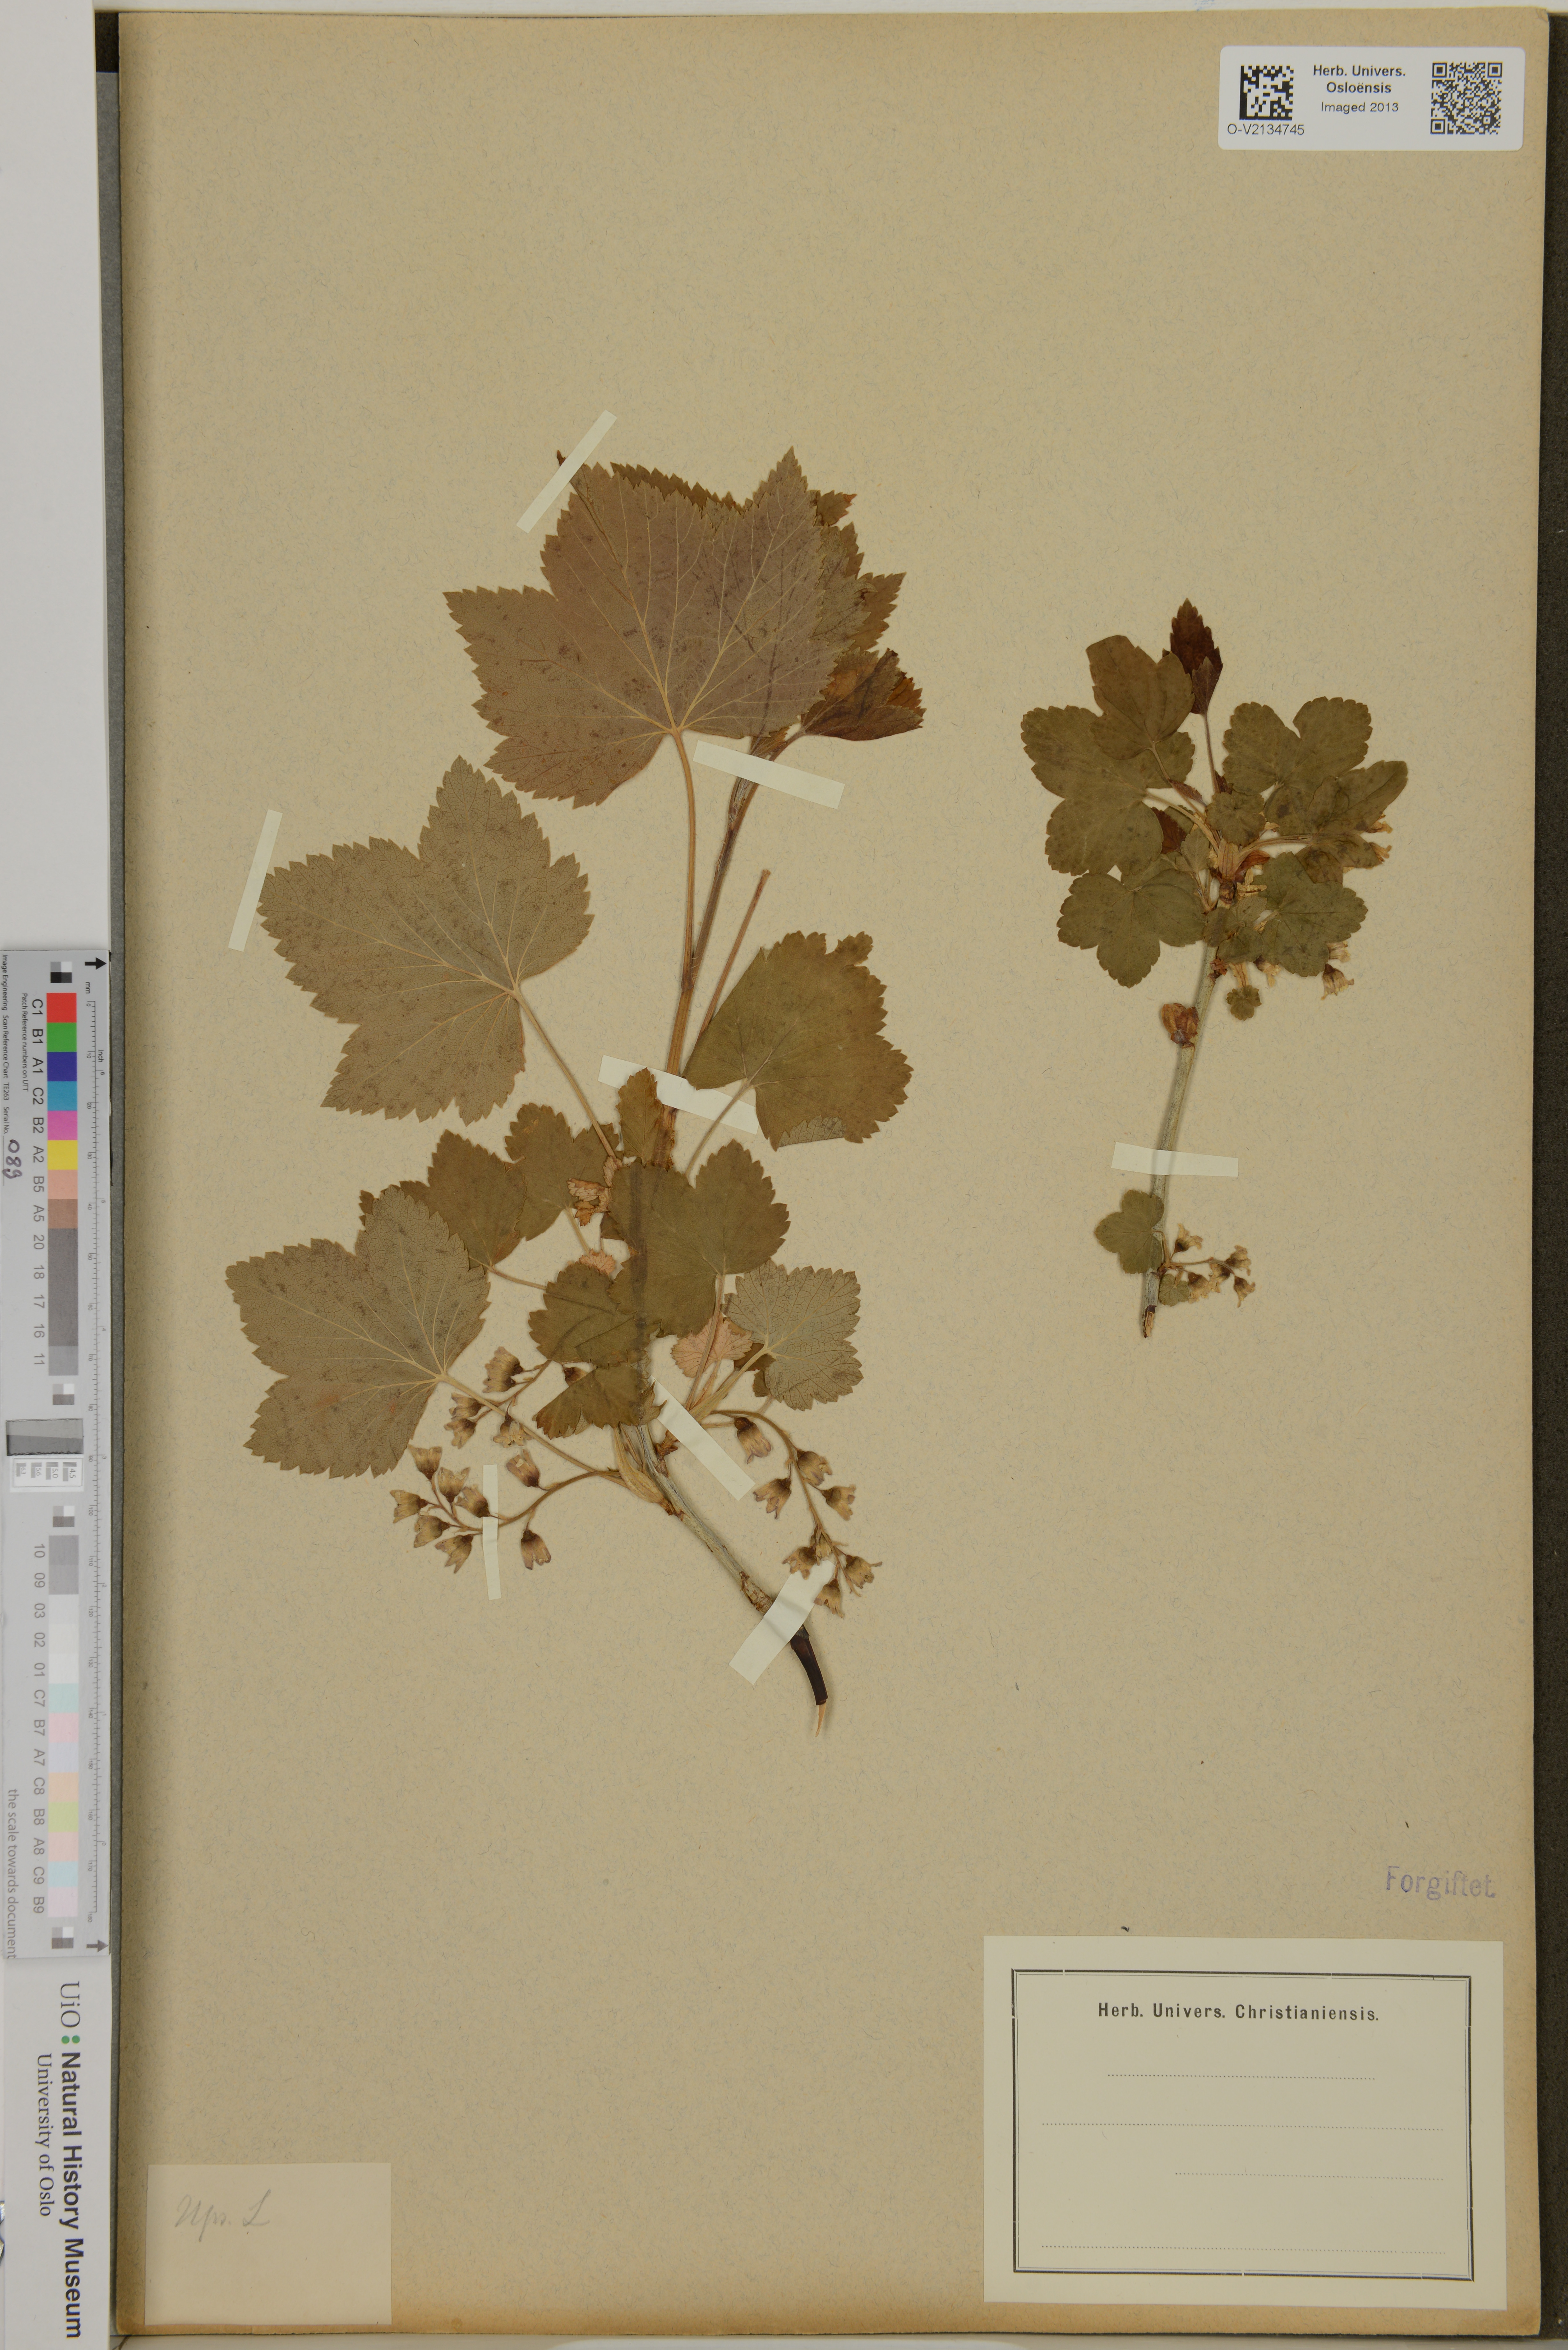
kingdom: Plantae
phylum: Tracheophyta
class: Magnoliopsida
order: Saxifragales
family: Grossulariaceae
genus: Ribes
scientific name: Ribes
